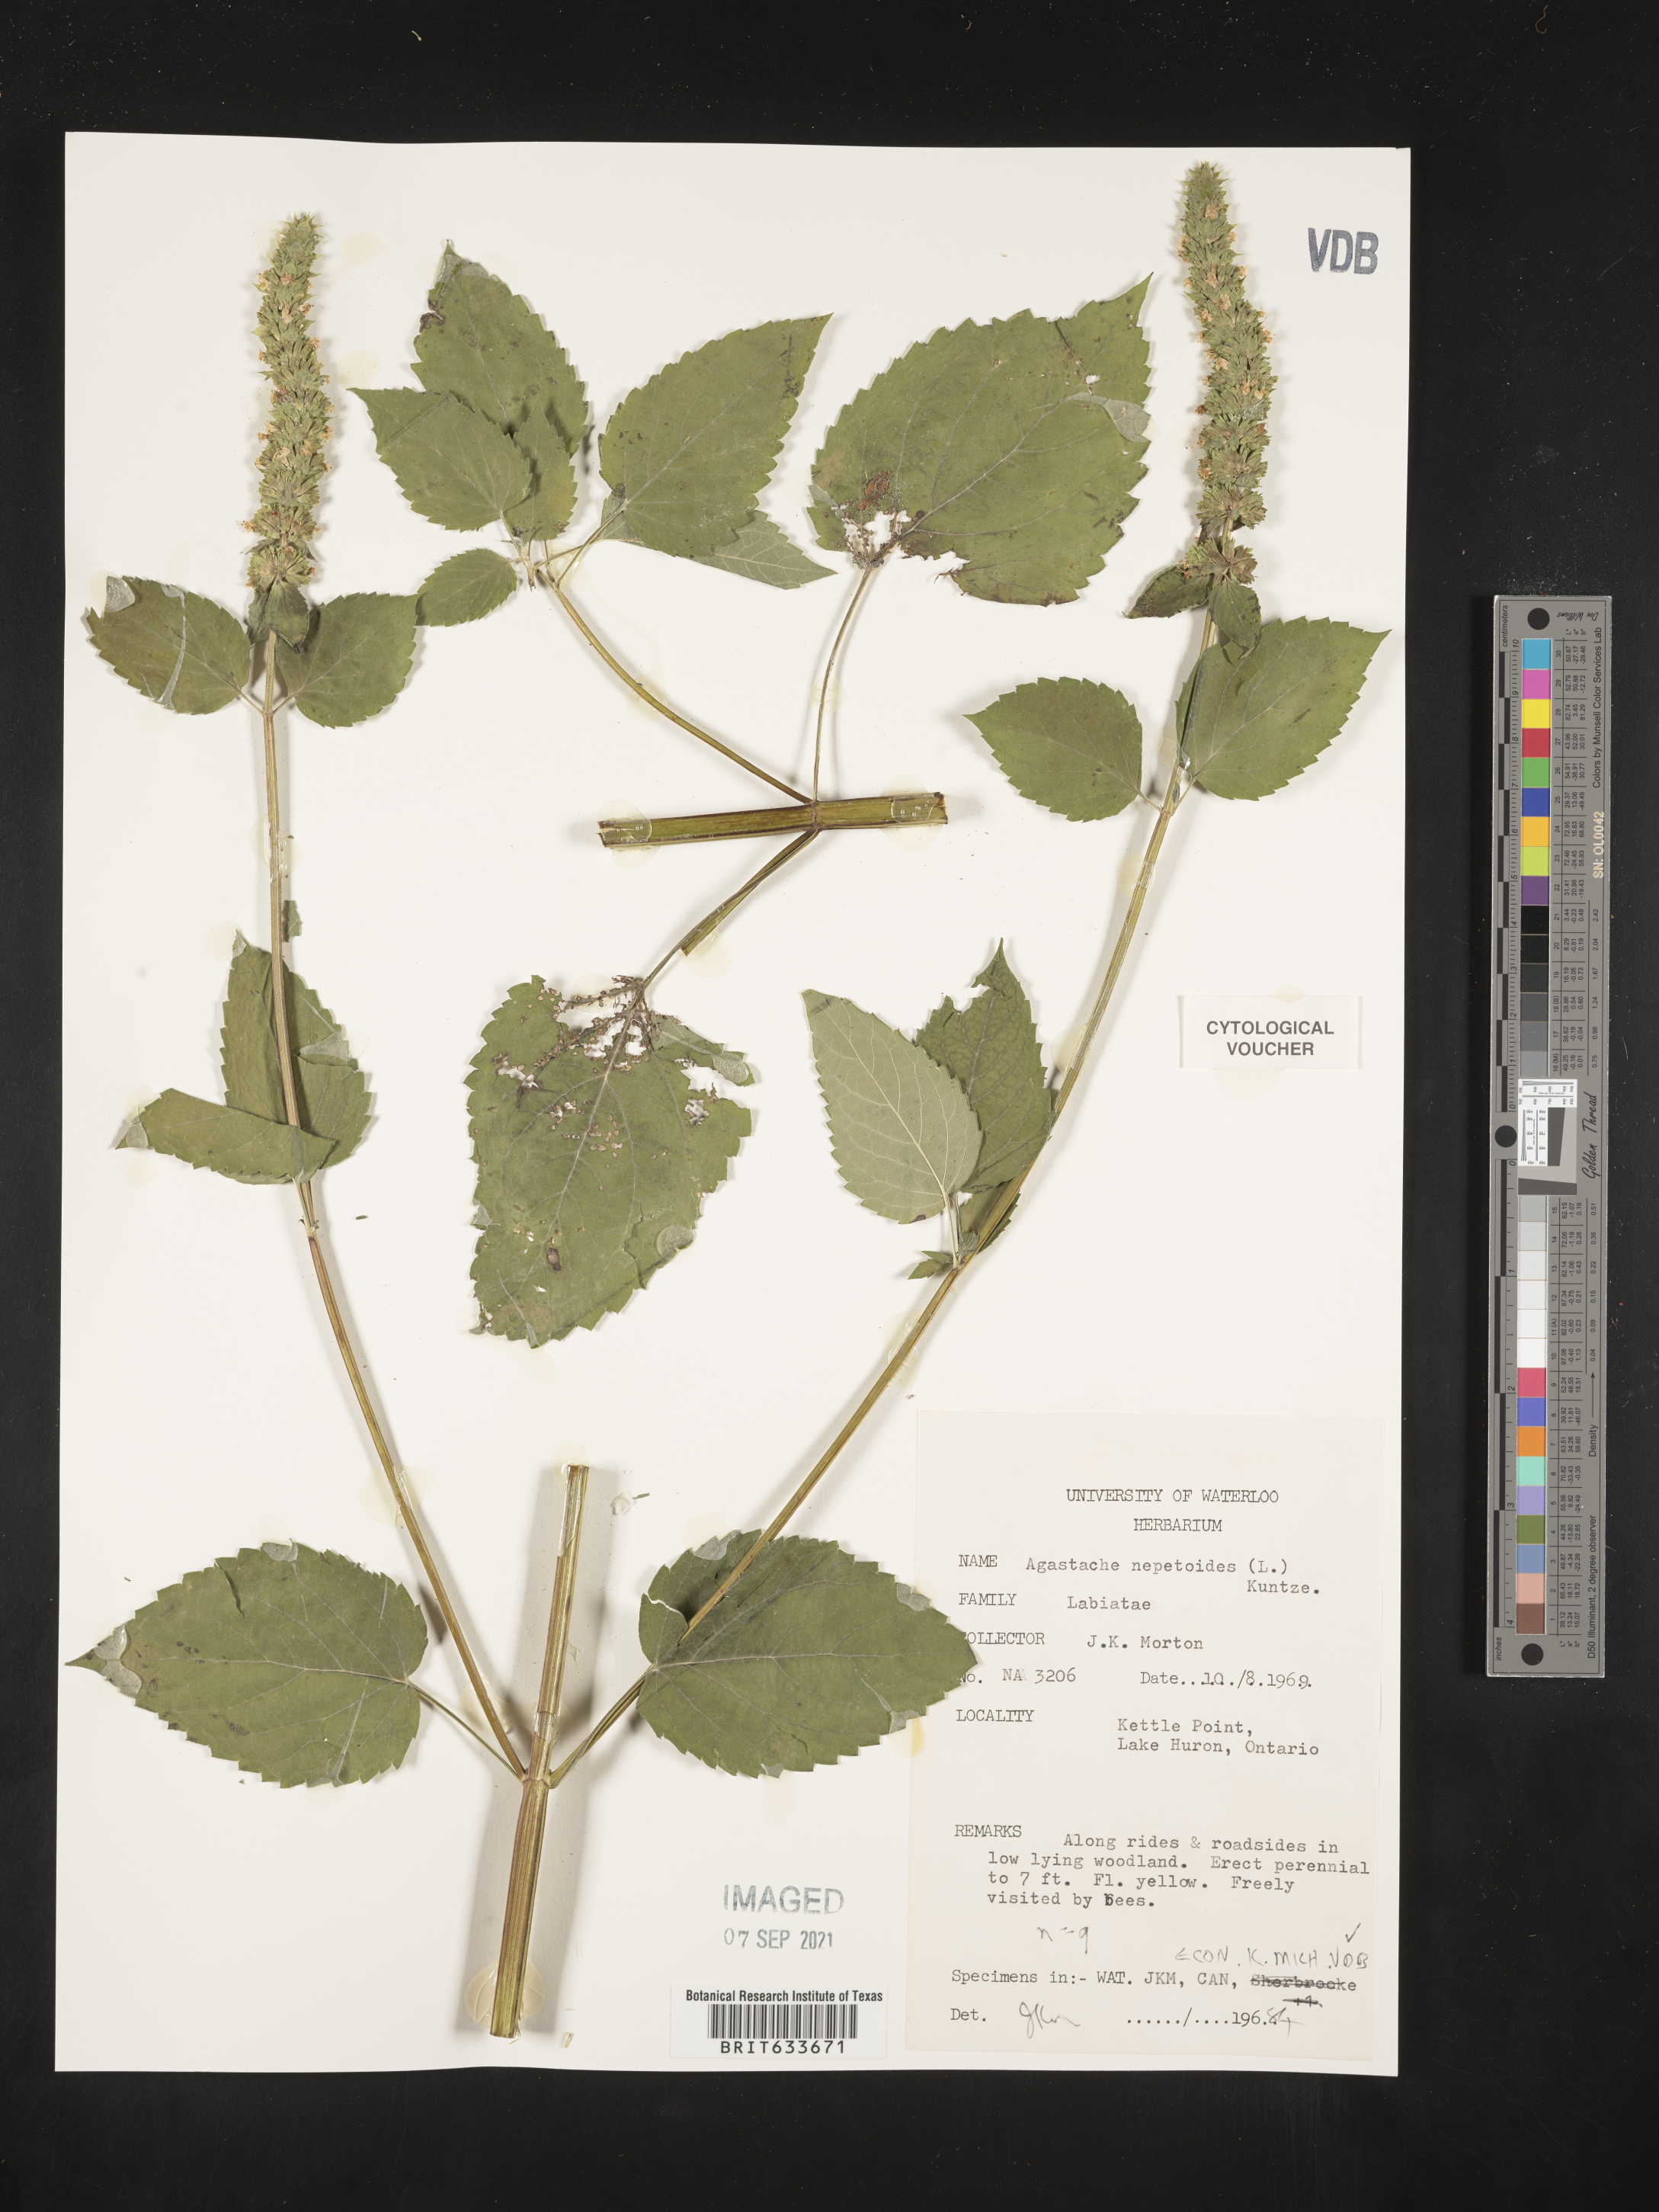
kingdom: Plantae
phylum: Tracheophyta
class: Magnoliopsida
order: Lamiales
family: Lamiaceae
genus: Agastache
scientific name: Agastache
